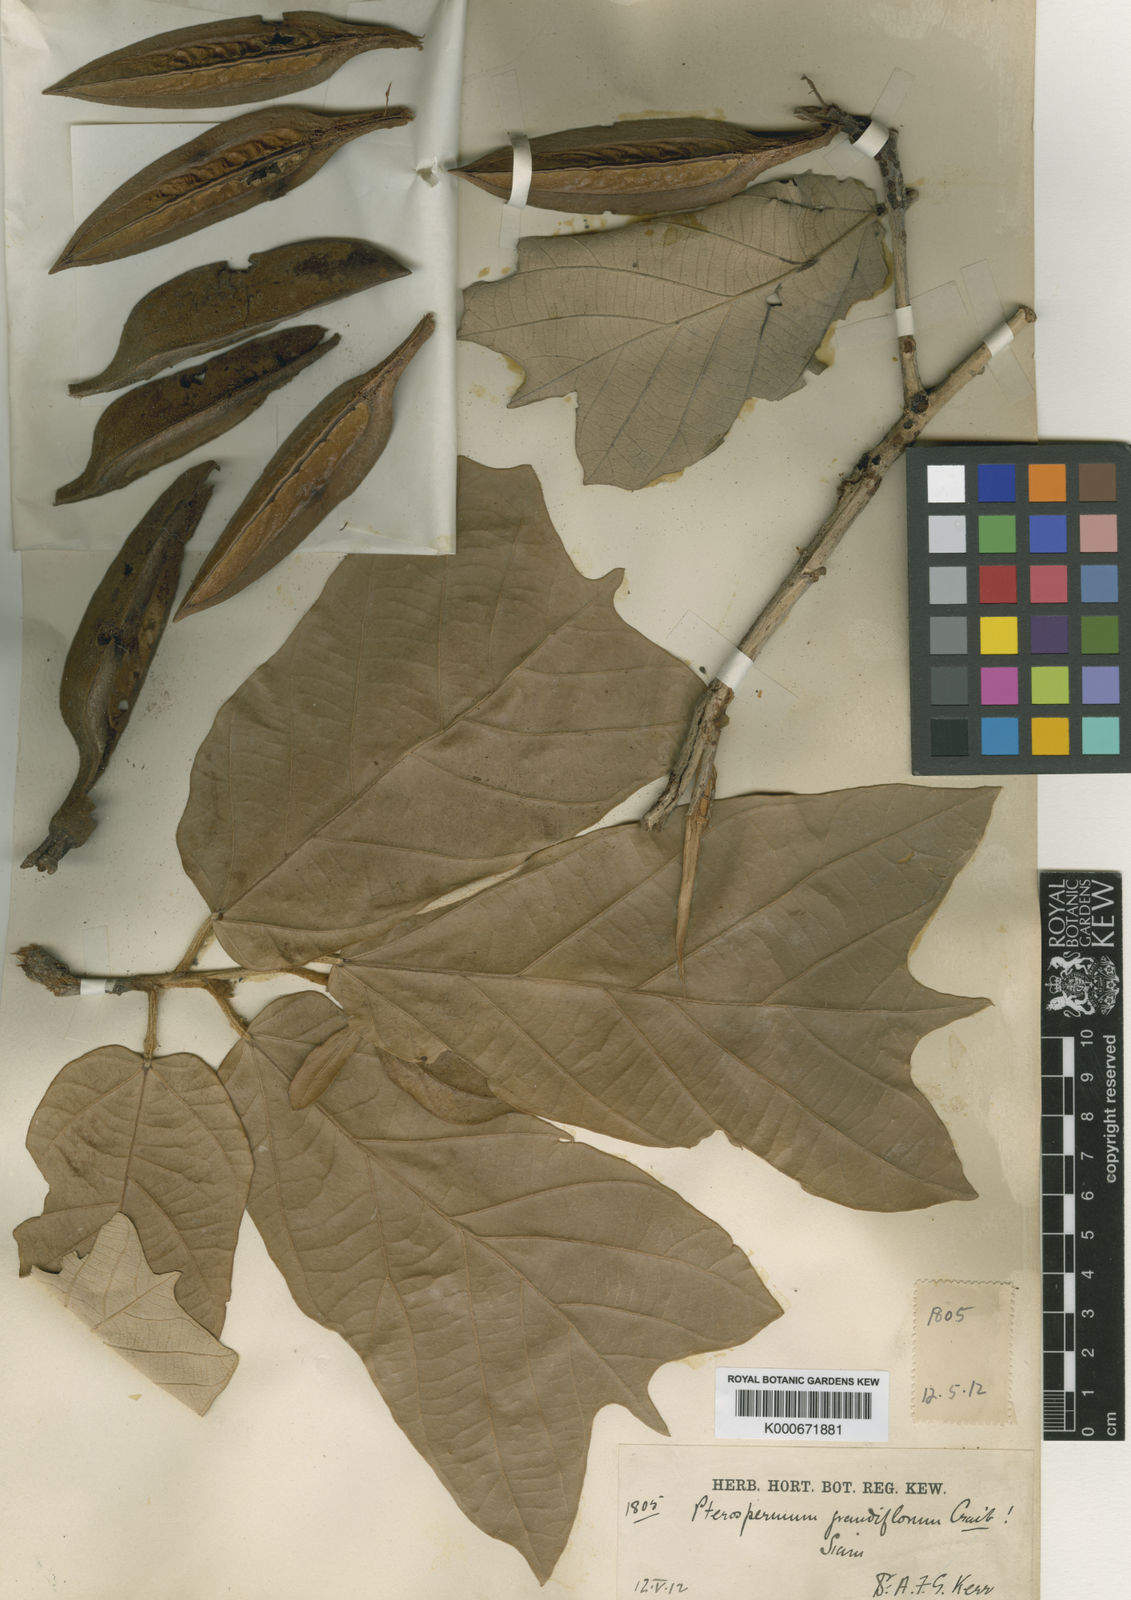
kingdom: Plantae
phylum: Tracheophyta
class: Magnoliopsida
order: Malvales
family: Malvaceae
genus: Pterospermum
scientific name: Pterospermum grandiflorum
